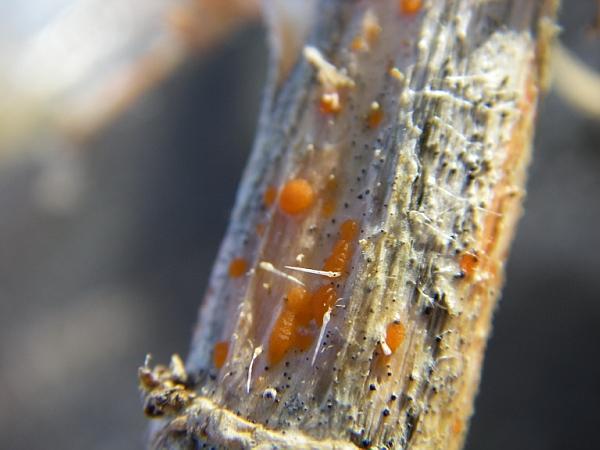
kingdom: Fungi
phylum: Ascomycota
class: Leotiomycetes
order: Helotiales
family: Calloriaceae
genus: Calloria
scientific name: Calloria urticae
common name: nælde-orangeskive
